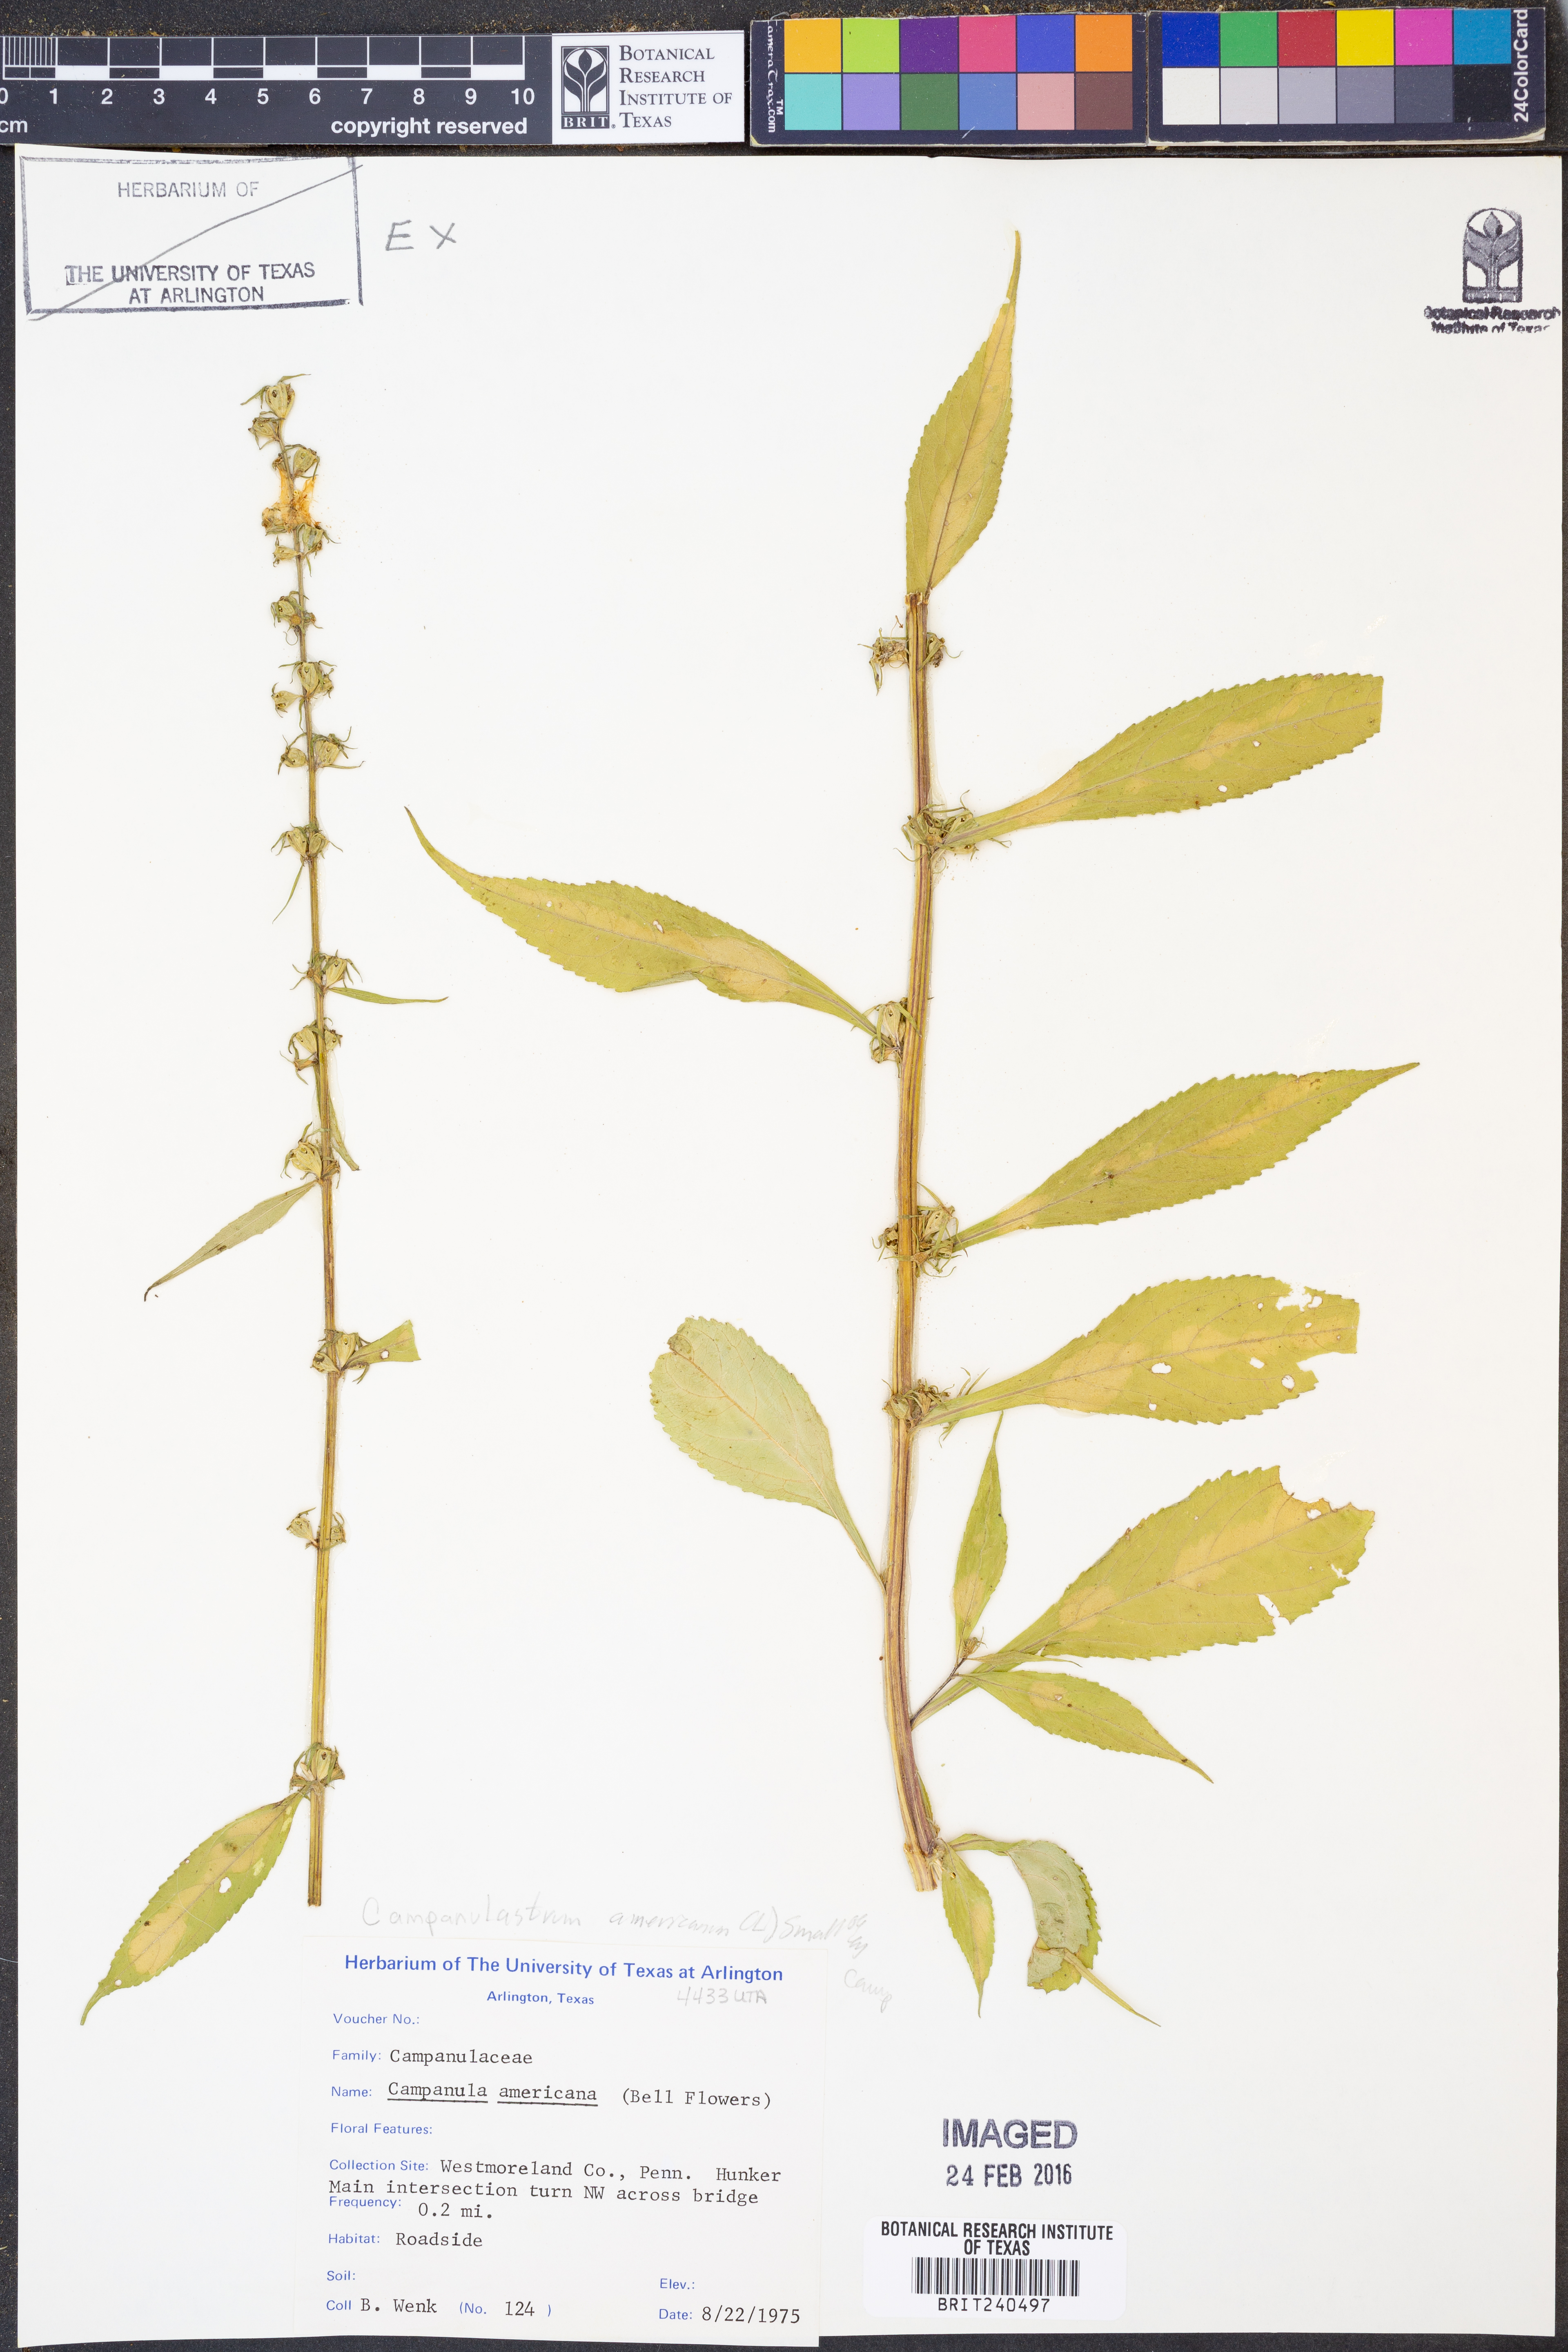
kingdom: Plantae
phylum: Tracheophyta
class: Magnoliopsida
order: Asterales
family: Campanulaceae
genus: Campanula
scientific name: Campanula americana
